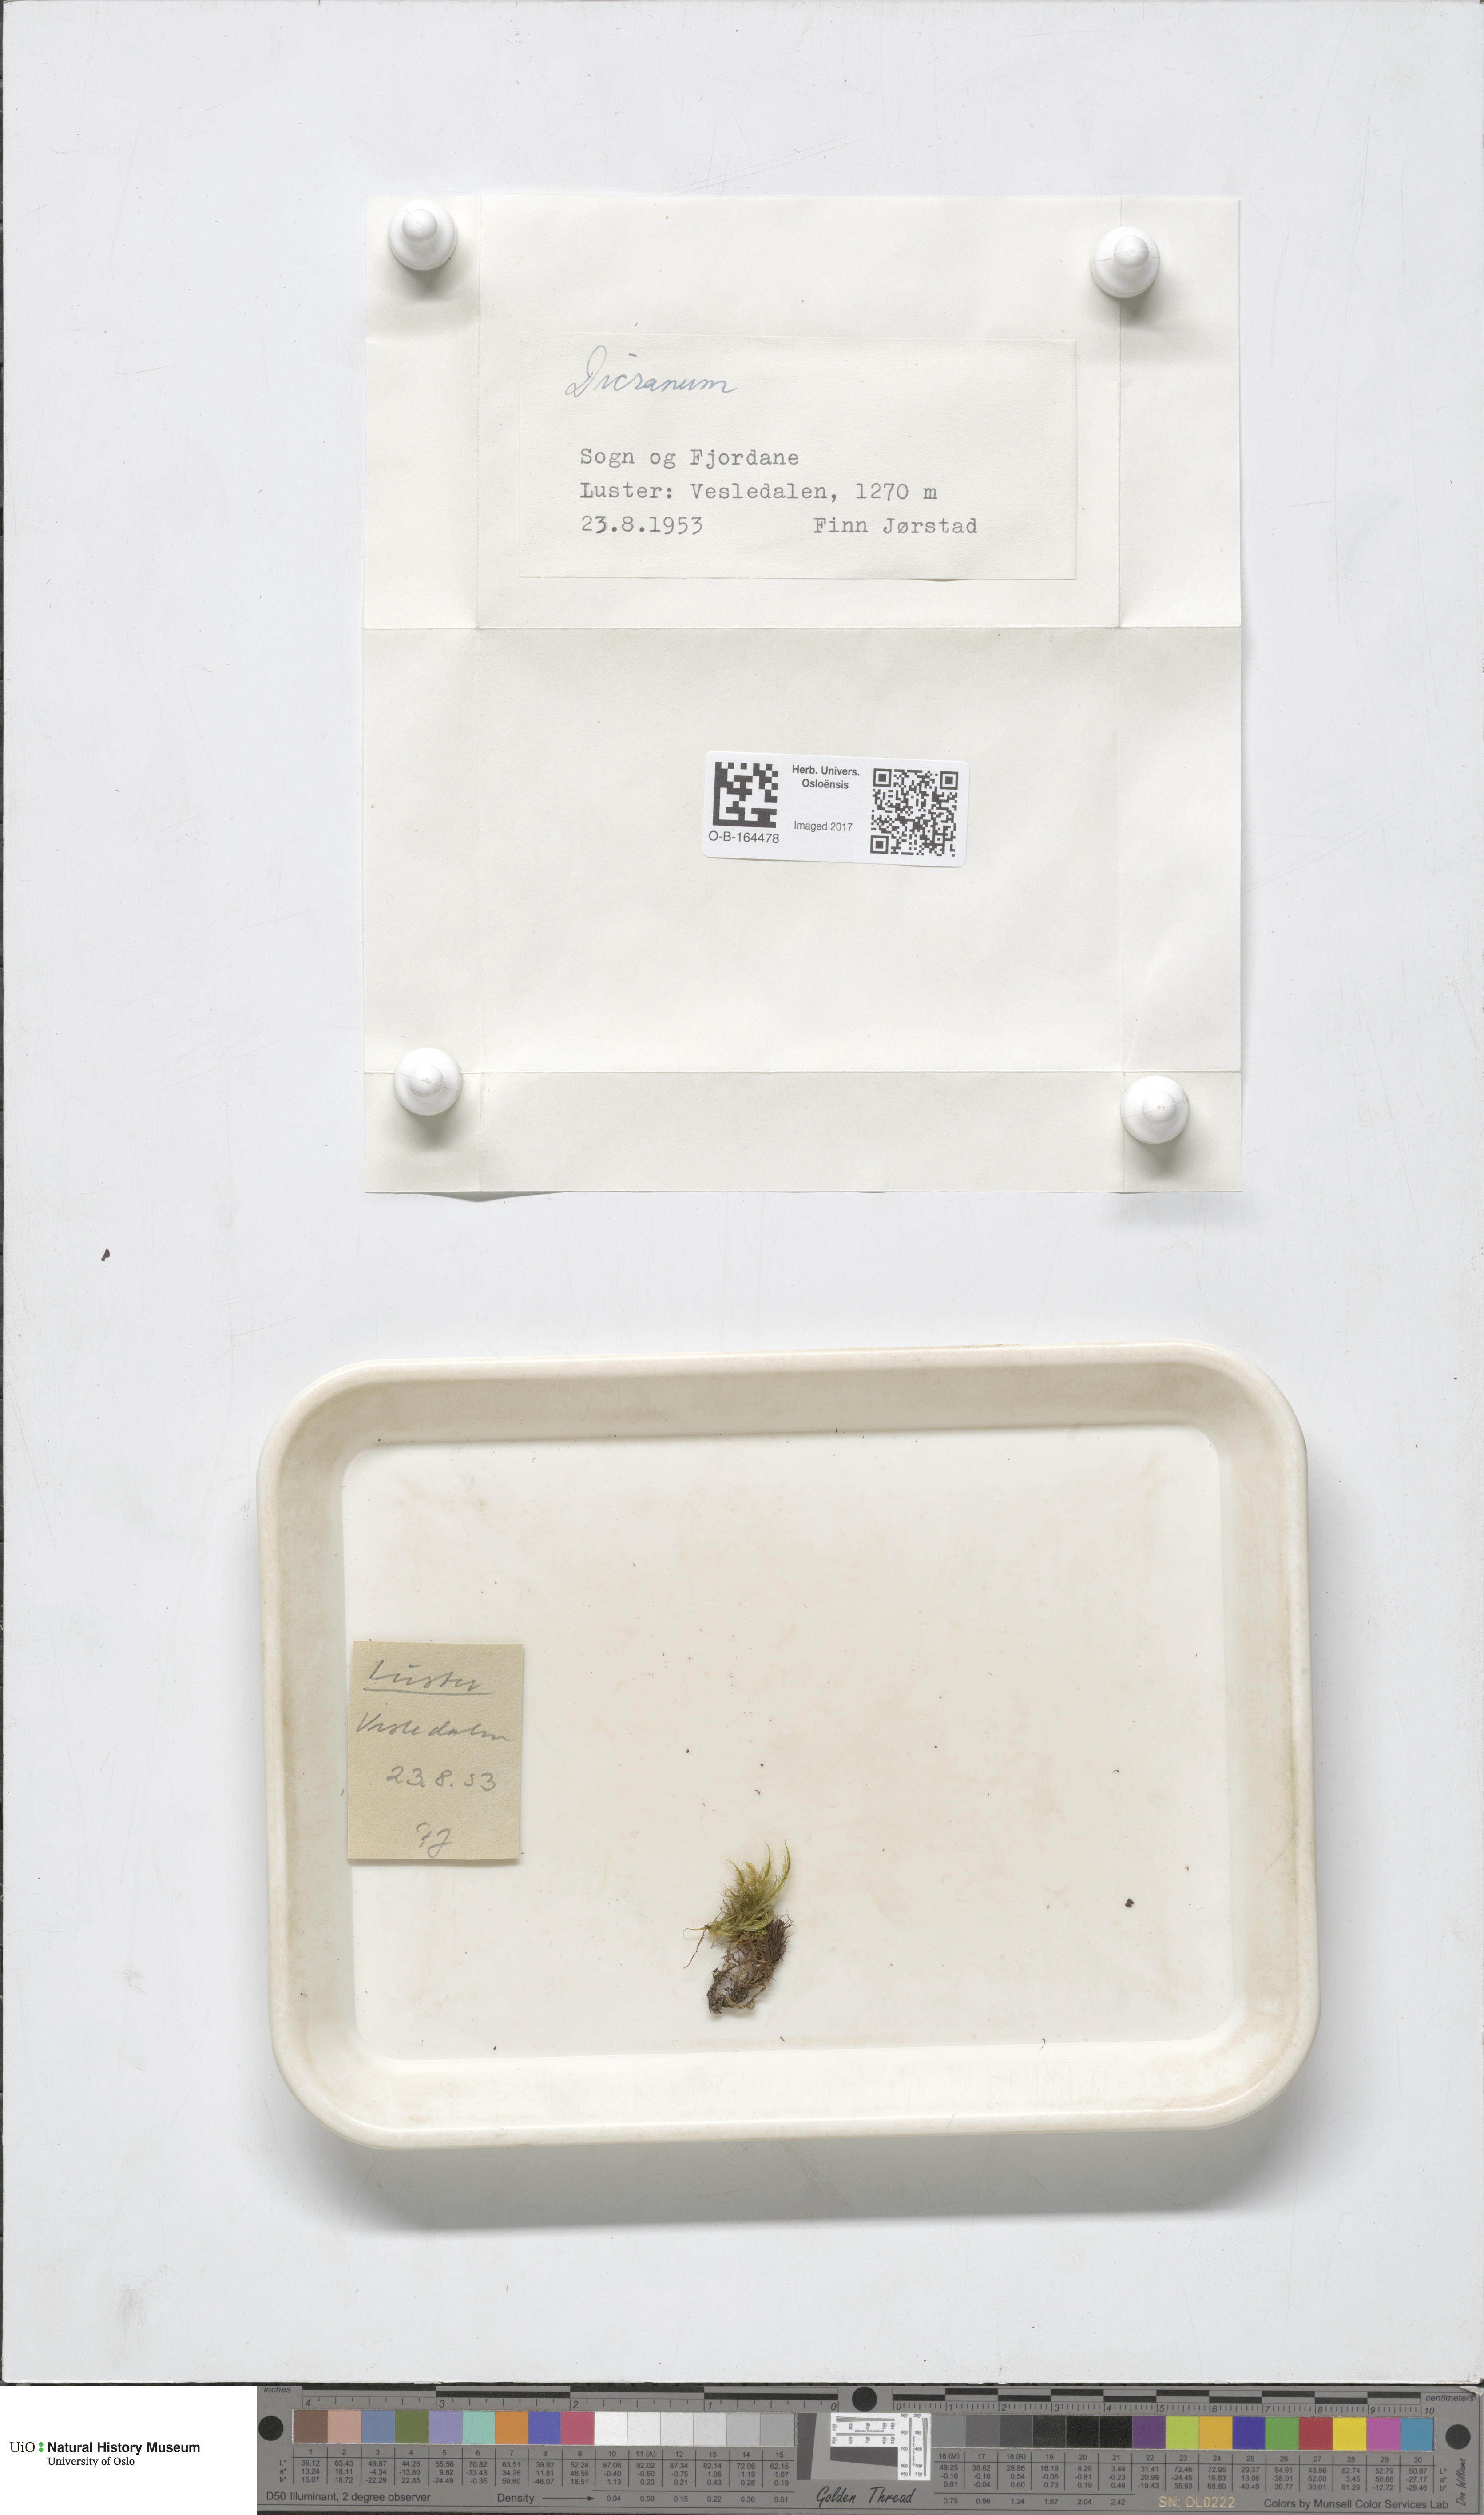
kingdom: Plantae
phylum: Bryophyta
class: Bryopsida
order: Dicranales
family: Dicranaceae
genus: Dicranum
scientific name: Dicranum
